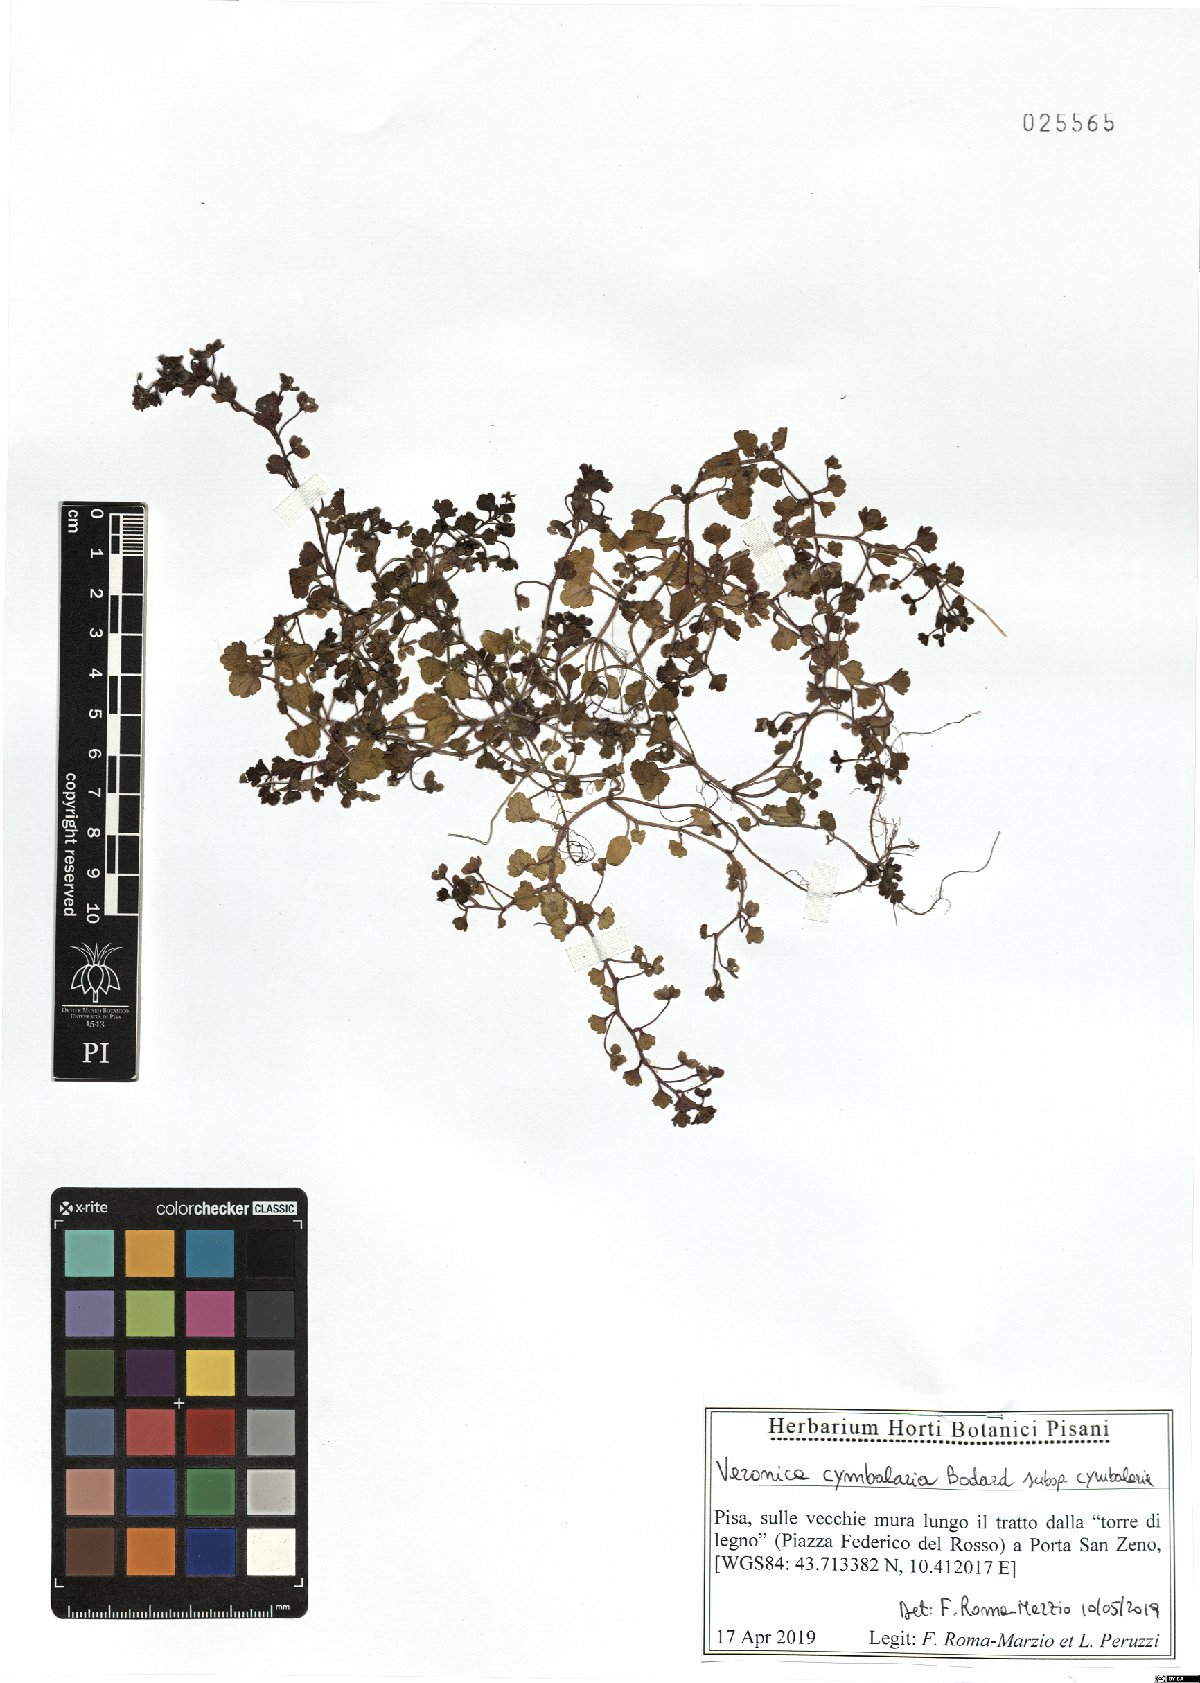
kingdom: Plantae
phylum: Tracheophyta
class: Magnoliopsida
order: Lamiales
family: Plantaginaceae
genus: Veronica
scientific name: Veronica cymbalaria
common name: Pale speedwell
